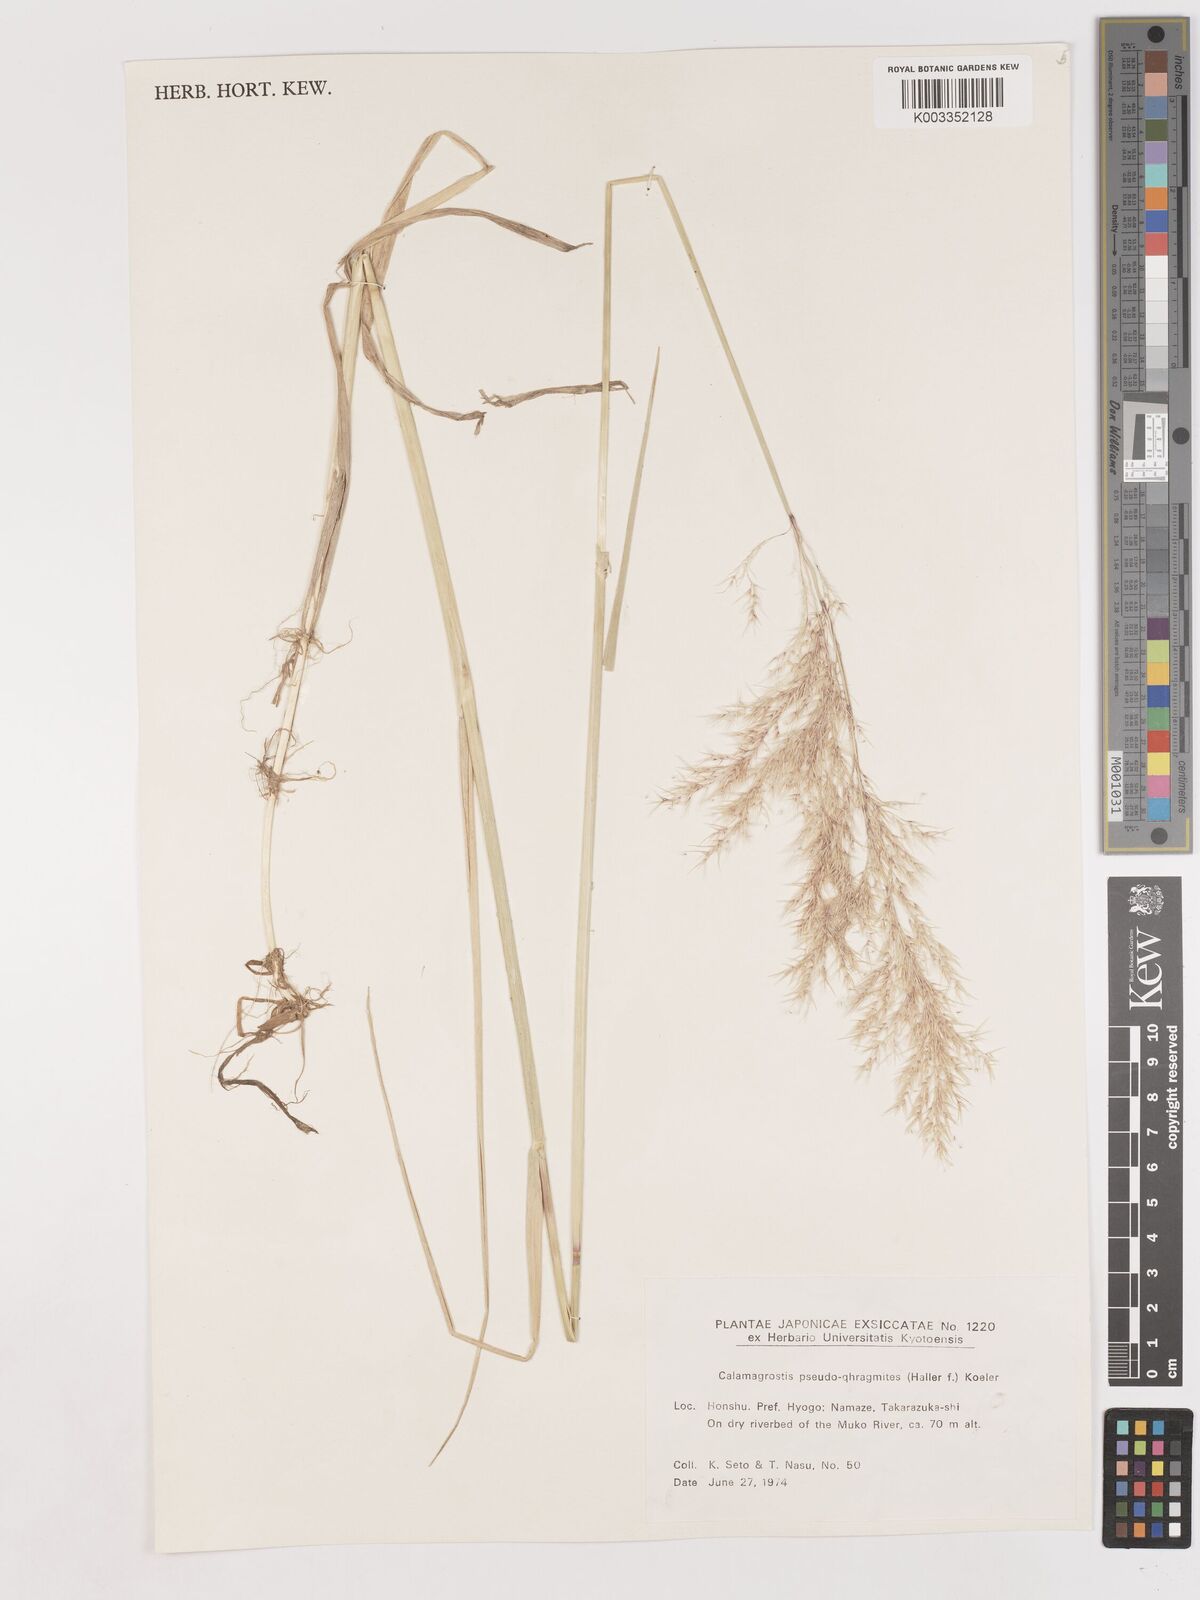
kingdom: Plantae
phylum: Tracheophyta
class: Liliopsida
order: Poales
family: Poaceae
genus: Calamagrostis
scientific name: Calamagrostis pseudophragmites
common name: Coastal small-reed
